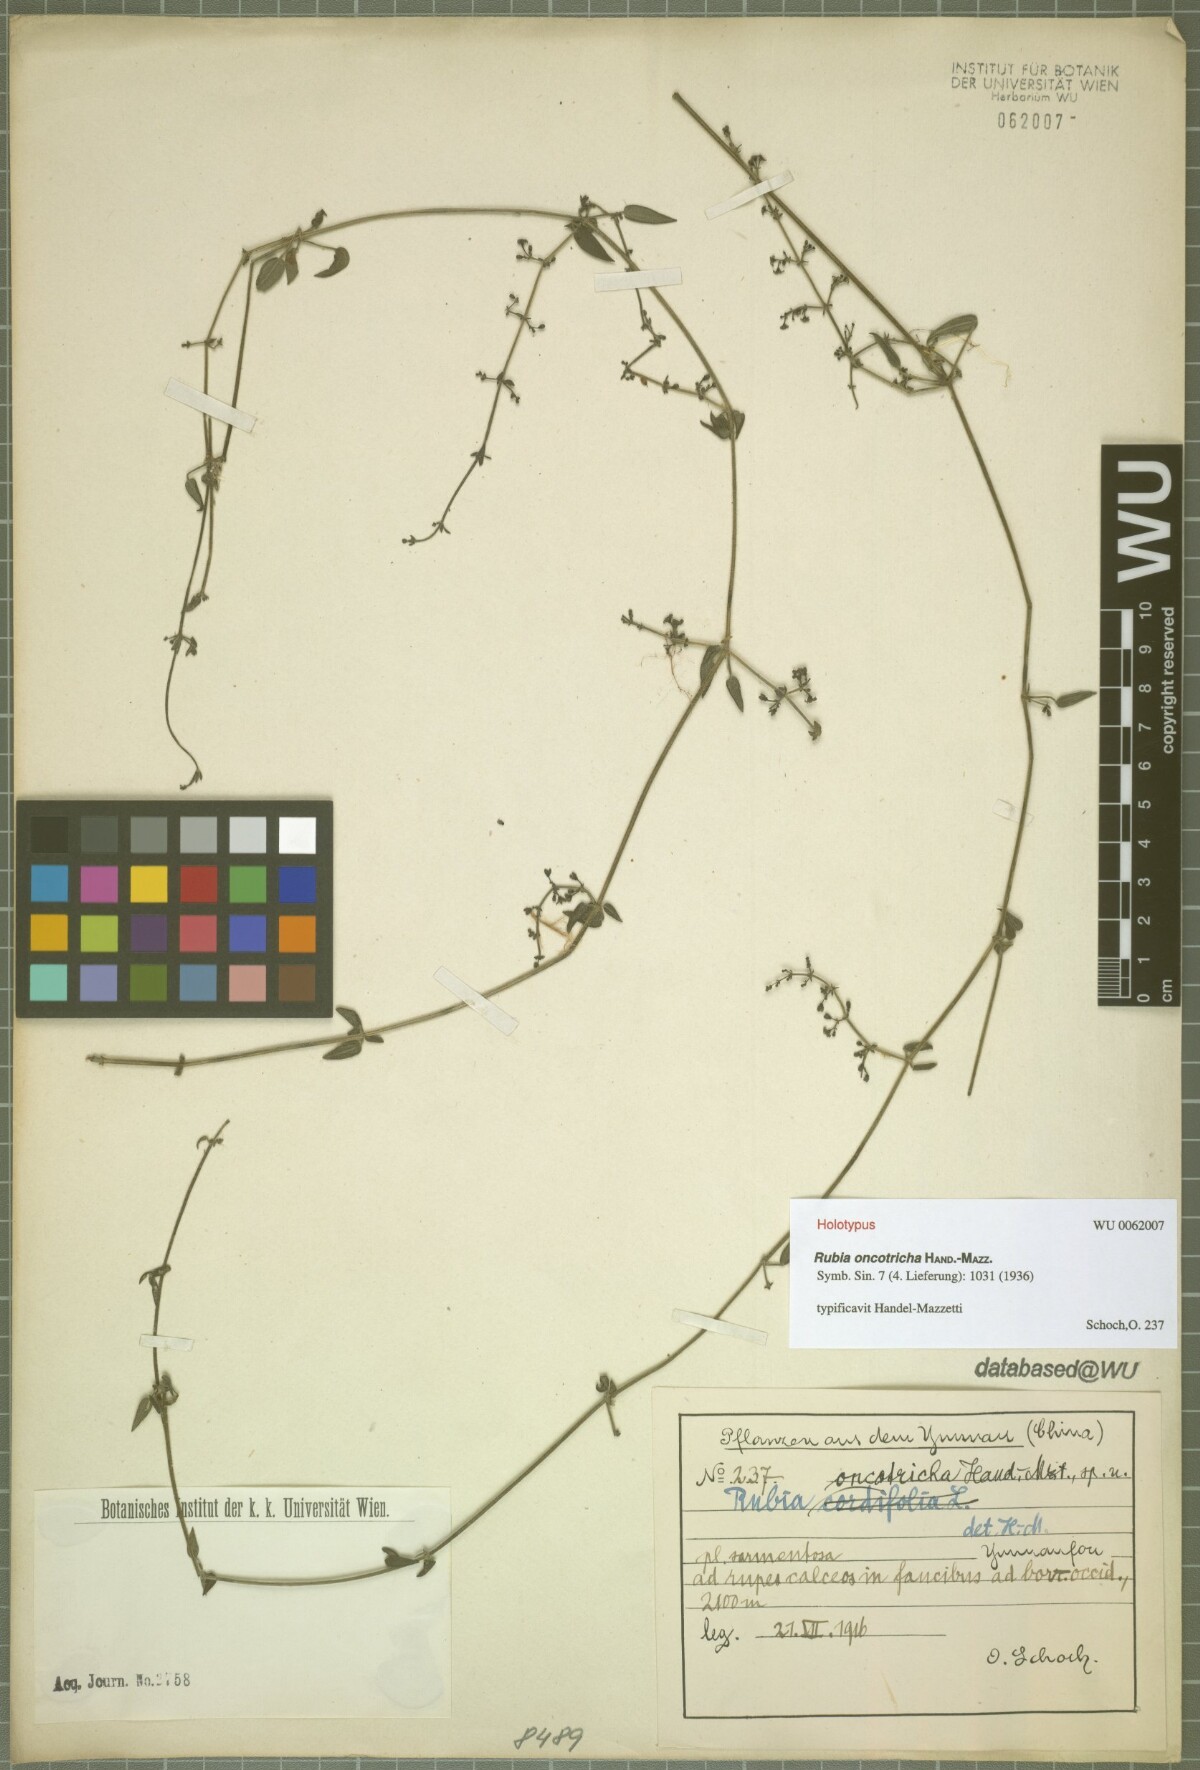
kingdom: Plantae
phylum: Tracheophyta
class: Magnoliopsida
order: Gentianales
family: Rubiaceae
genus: Rubia
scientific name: Rubia oncotricha
